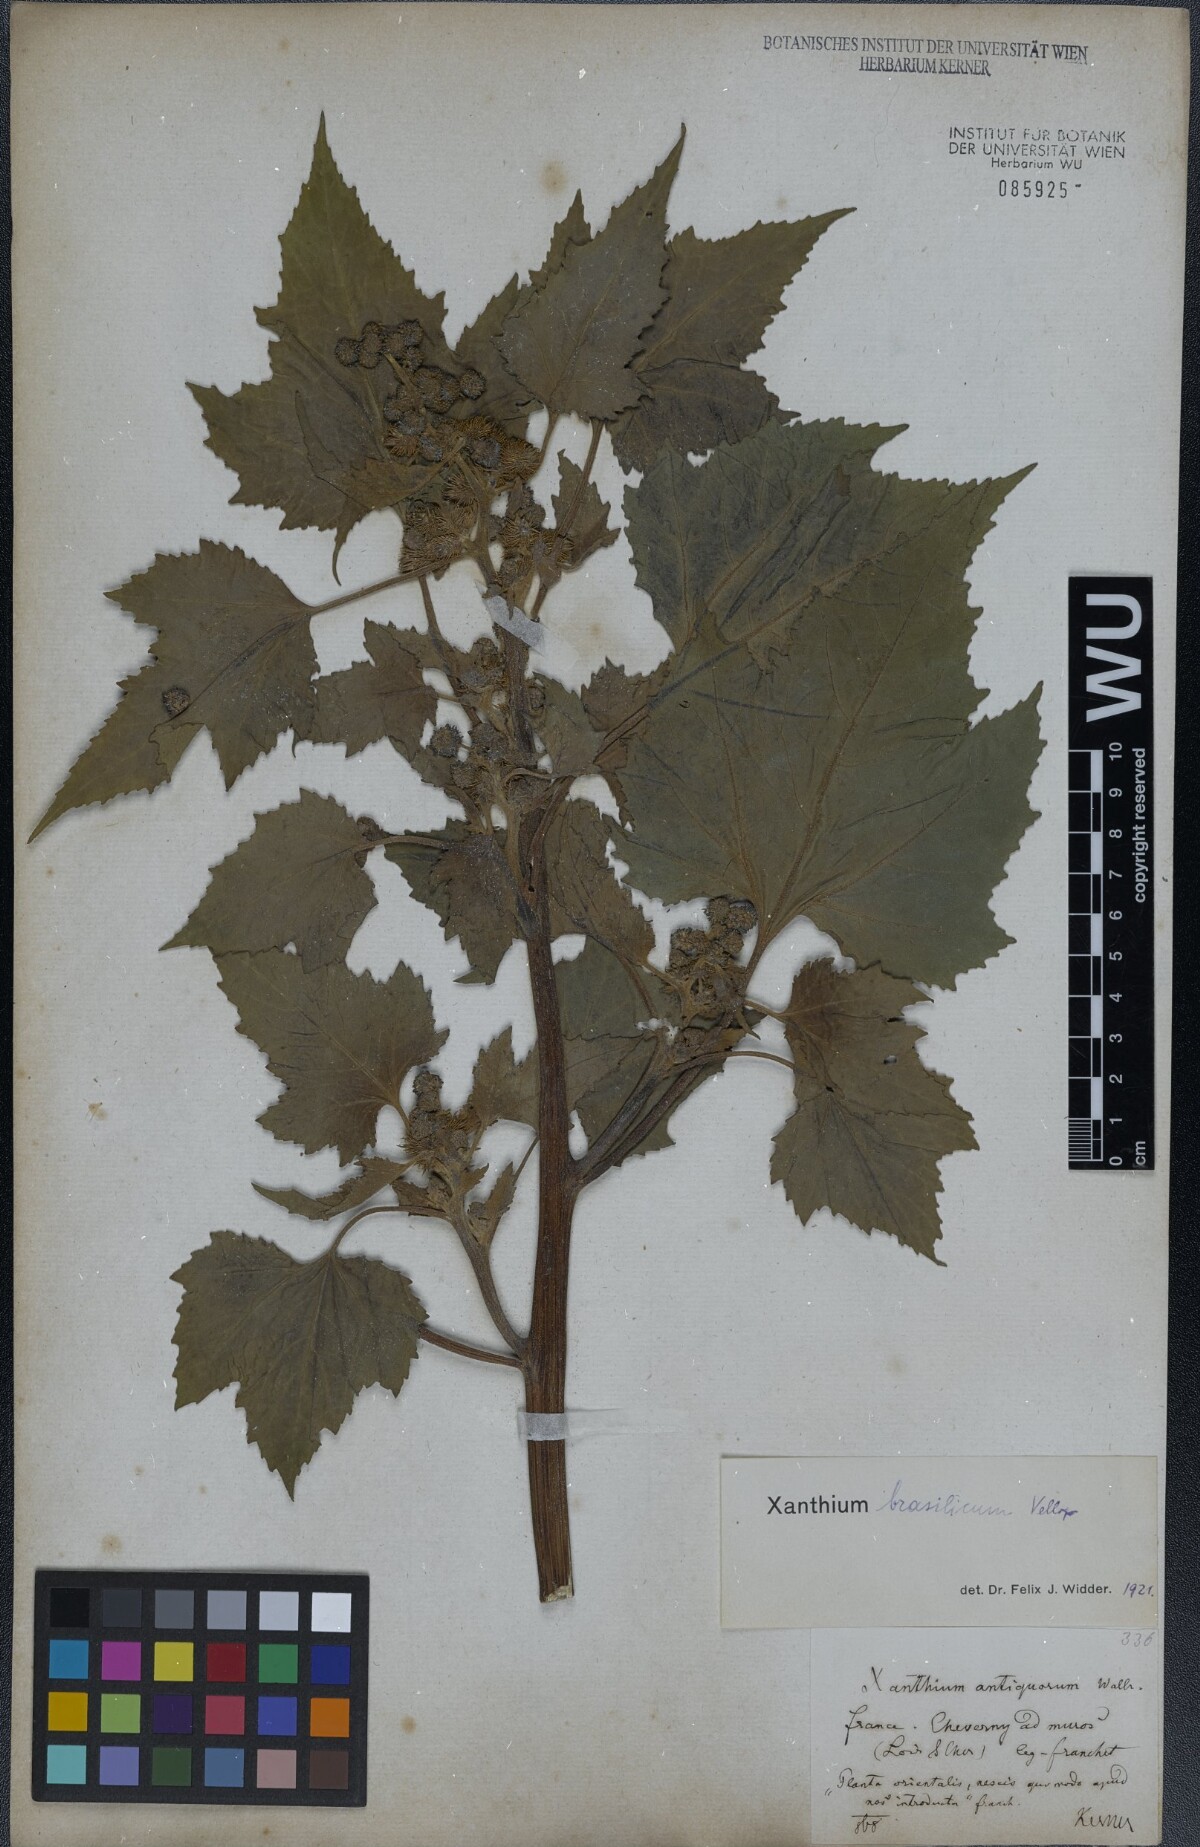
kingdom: Plantae
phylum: Tracheophyta
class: Magnoliopsida
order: Asterales
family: Asteraceae
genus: Xanthium
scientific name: Xanthium strumarium
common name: Rough cocklebur
